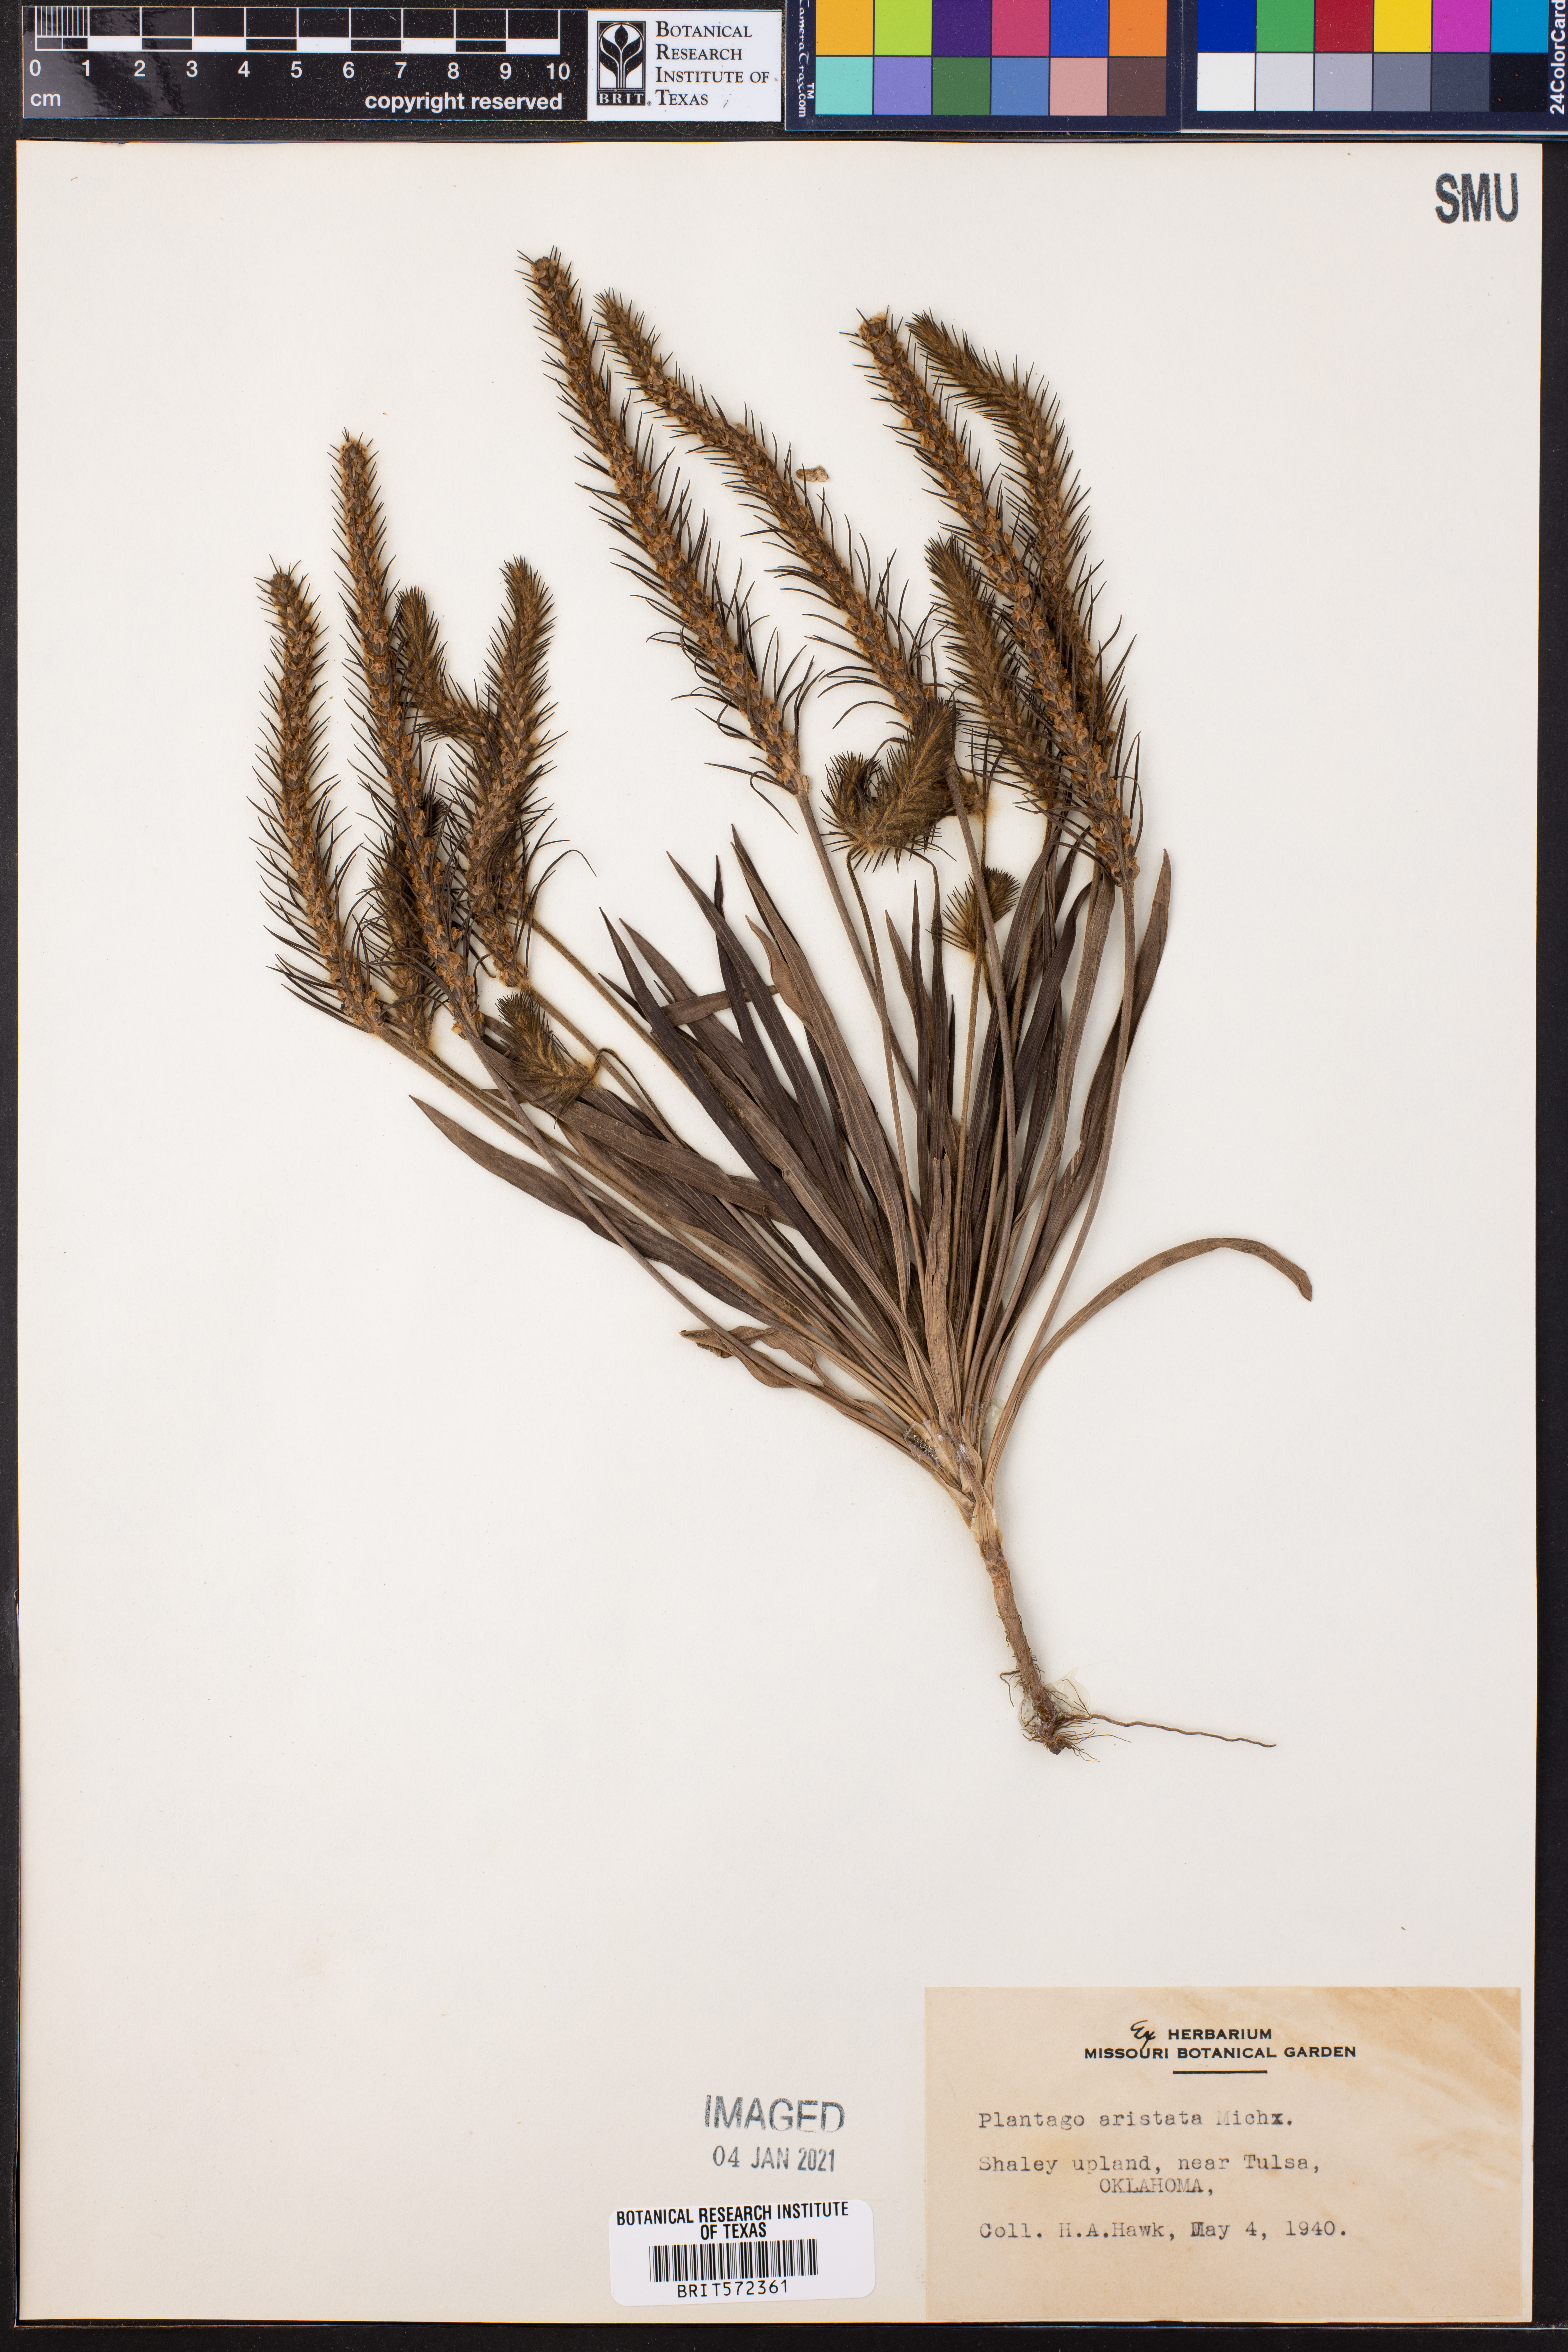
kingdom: Plantae
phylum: Tracheophyta
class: Magnoliopsida
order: Lamiales
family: Plantaginaceae
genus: Plantago
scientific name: Plantago aristata
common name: Bracted plantain
